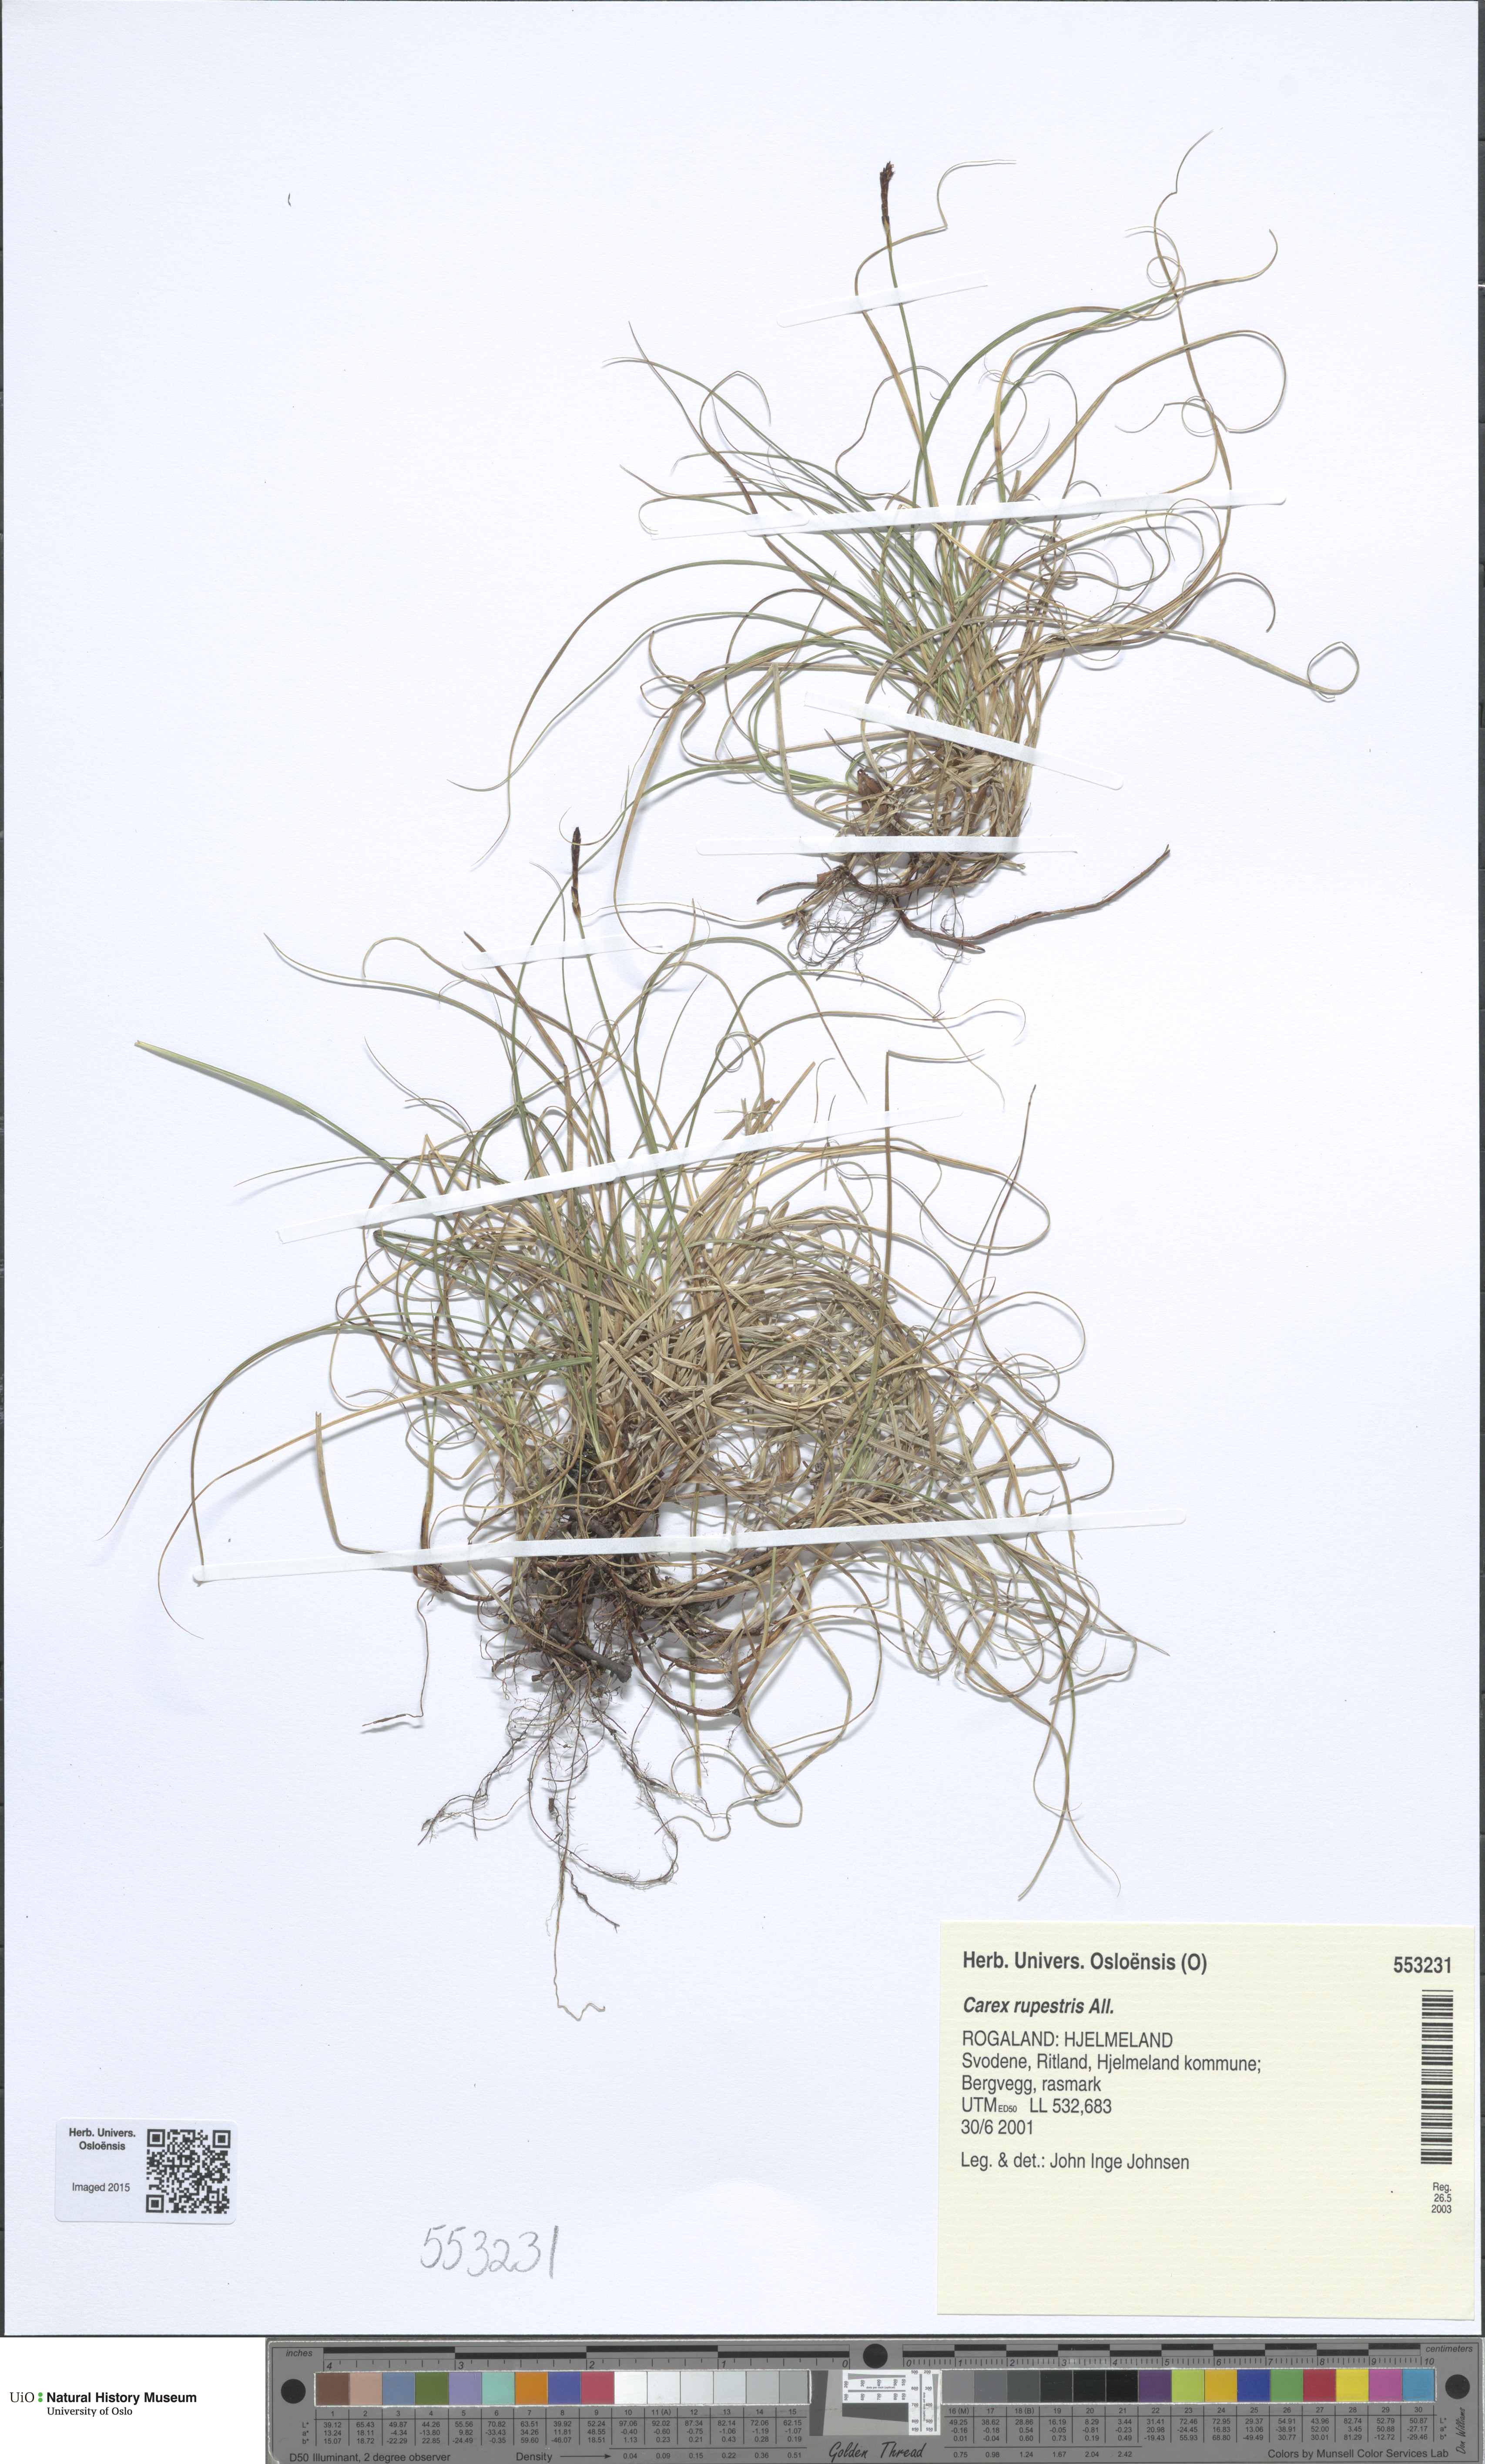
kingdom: Plantae
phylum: Tracheophyta
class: Liliopsida
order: Poales
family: Cyperaceae
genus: Carex
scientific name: Carex rupestris
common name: Rock sedge
